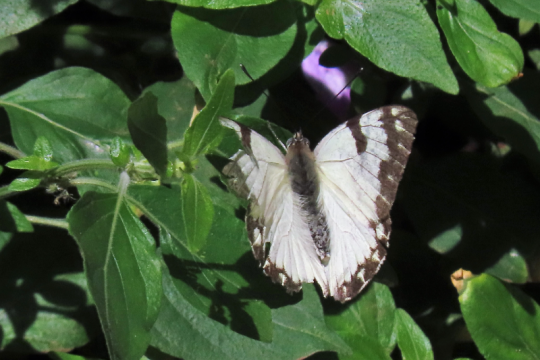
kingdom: Animalia
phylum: Arthropoda
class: Insecta
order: Lepidoptera
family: Pieridae
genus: Belenois
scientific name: Belenois creona
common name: African Caper
